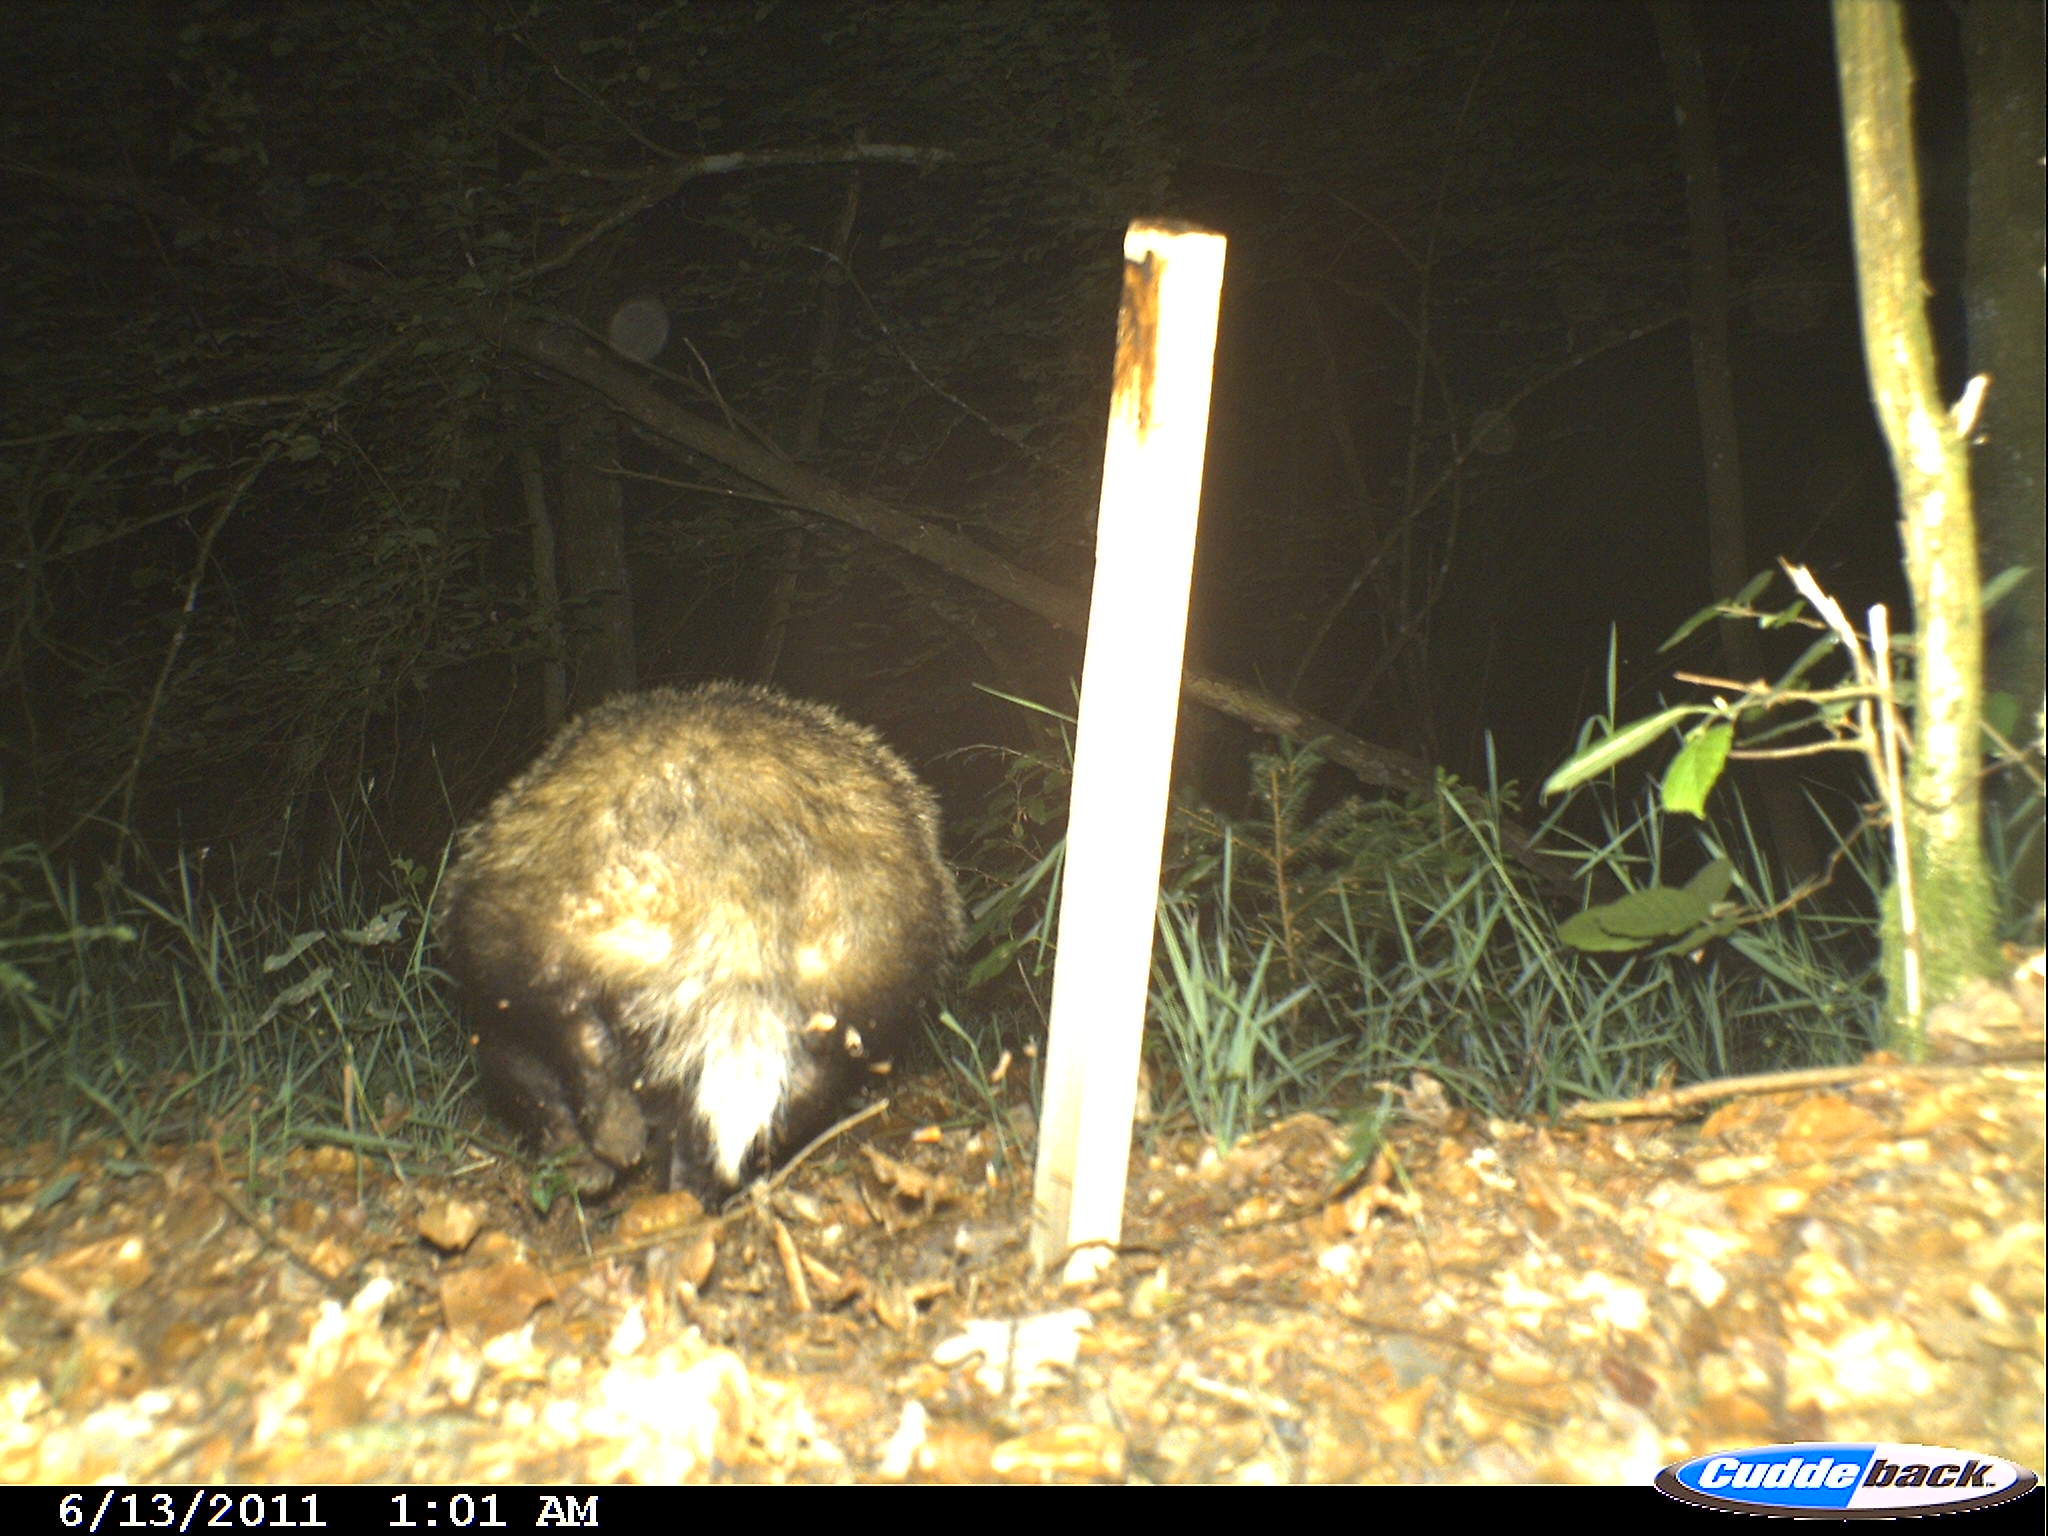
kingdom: Animalia
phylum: Chordata
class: Mammalia
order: Carnivora
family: Mustelidae
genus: Meles
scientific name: Meles meles
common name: Eurasian badger
